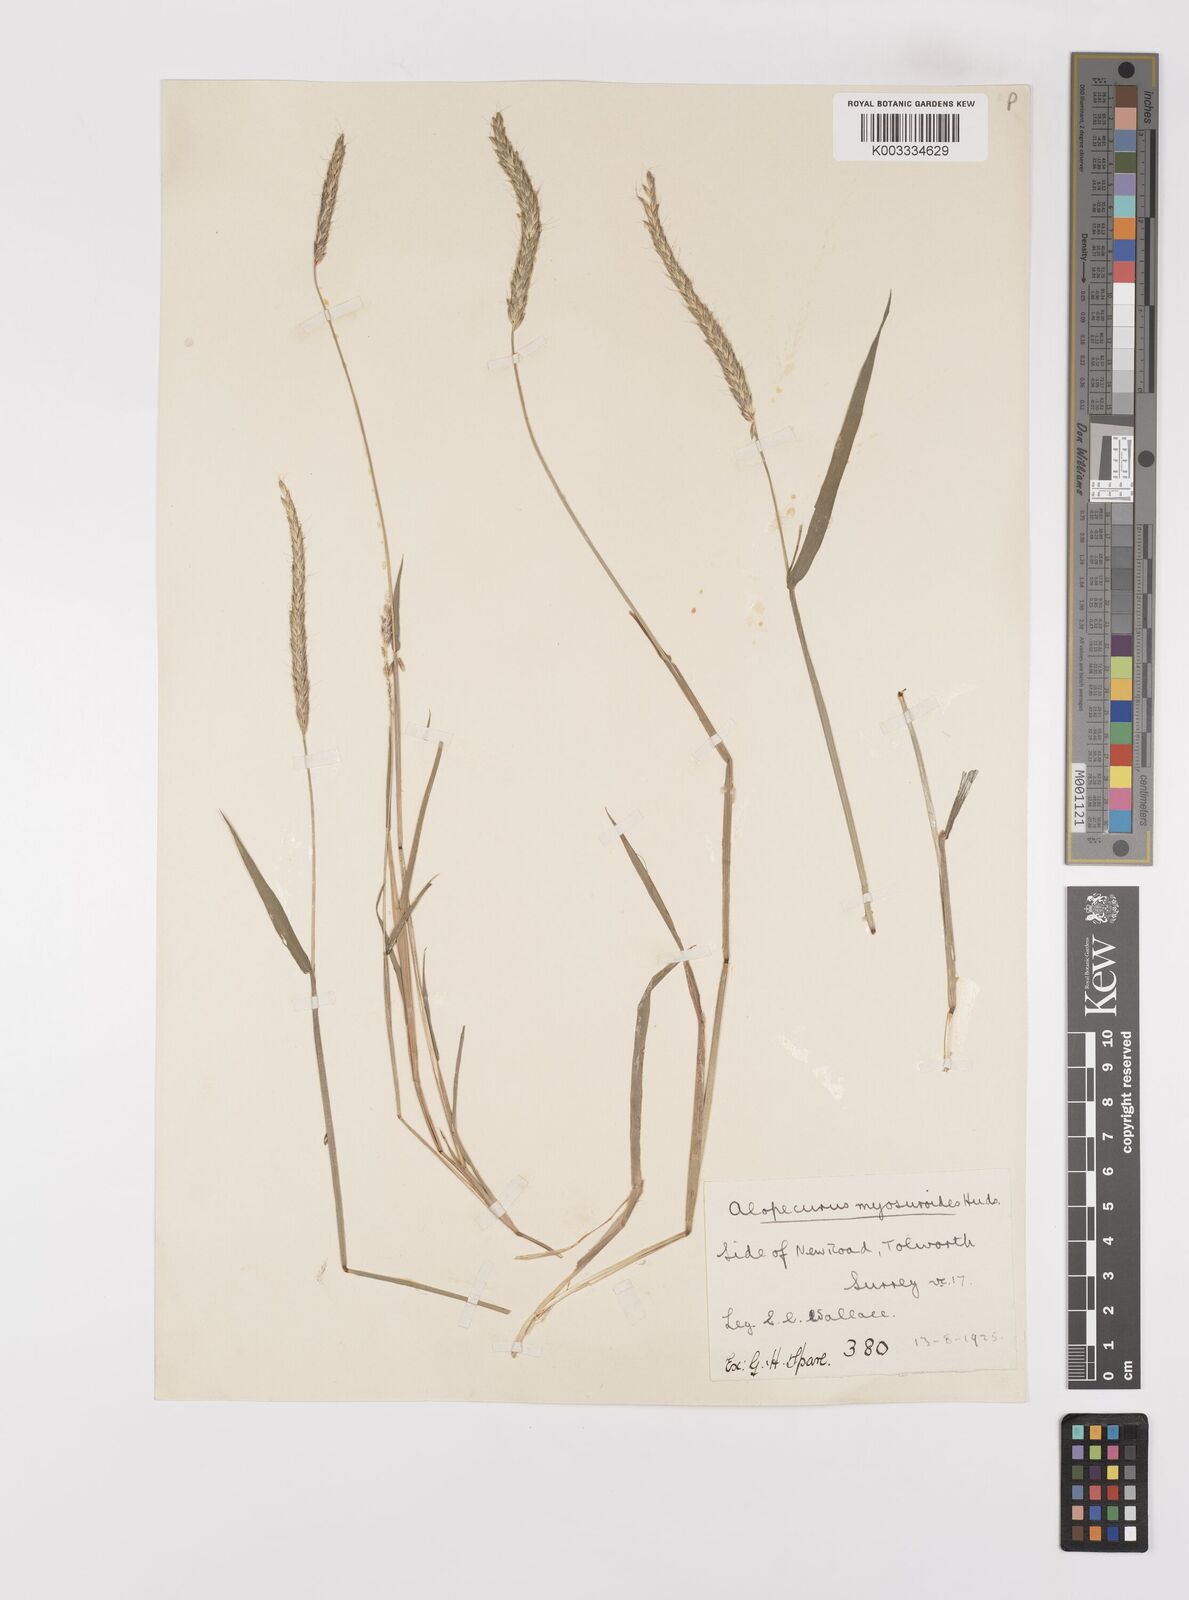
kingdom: Plantae
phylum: Tracheophyta
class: Liliopsida
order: Poales
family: Poaceae
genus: Alopecurus
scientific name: Alopecurus myosuroides
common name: Black-grass
